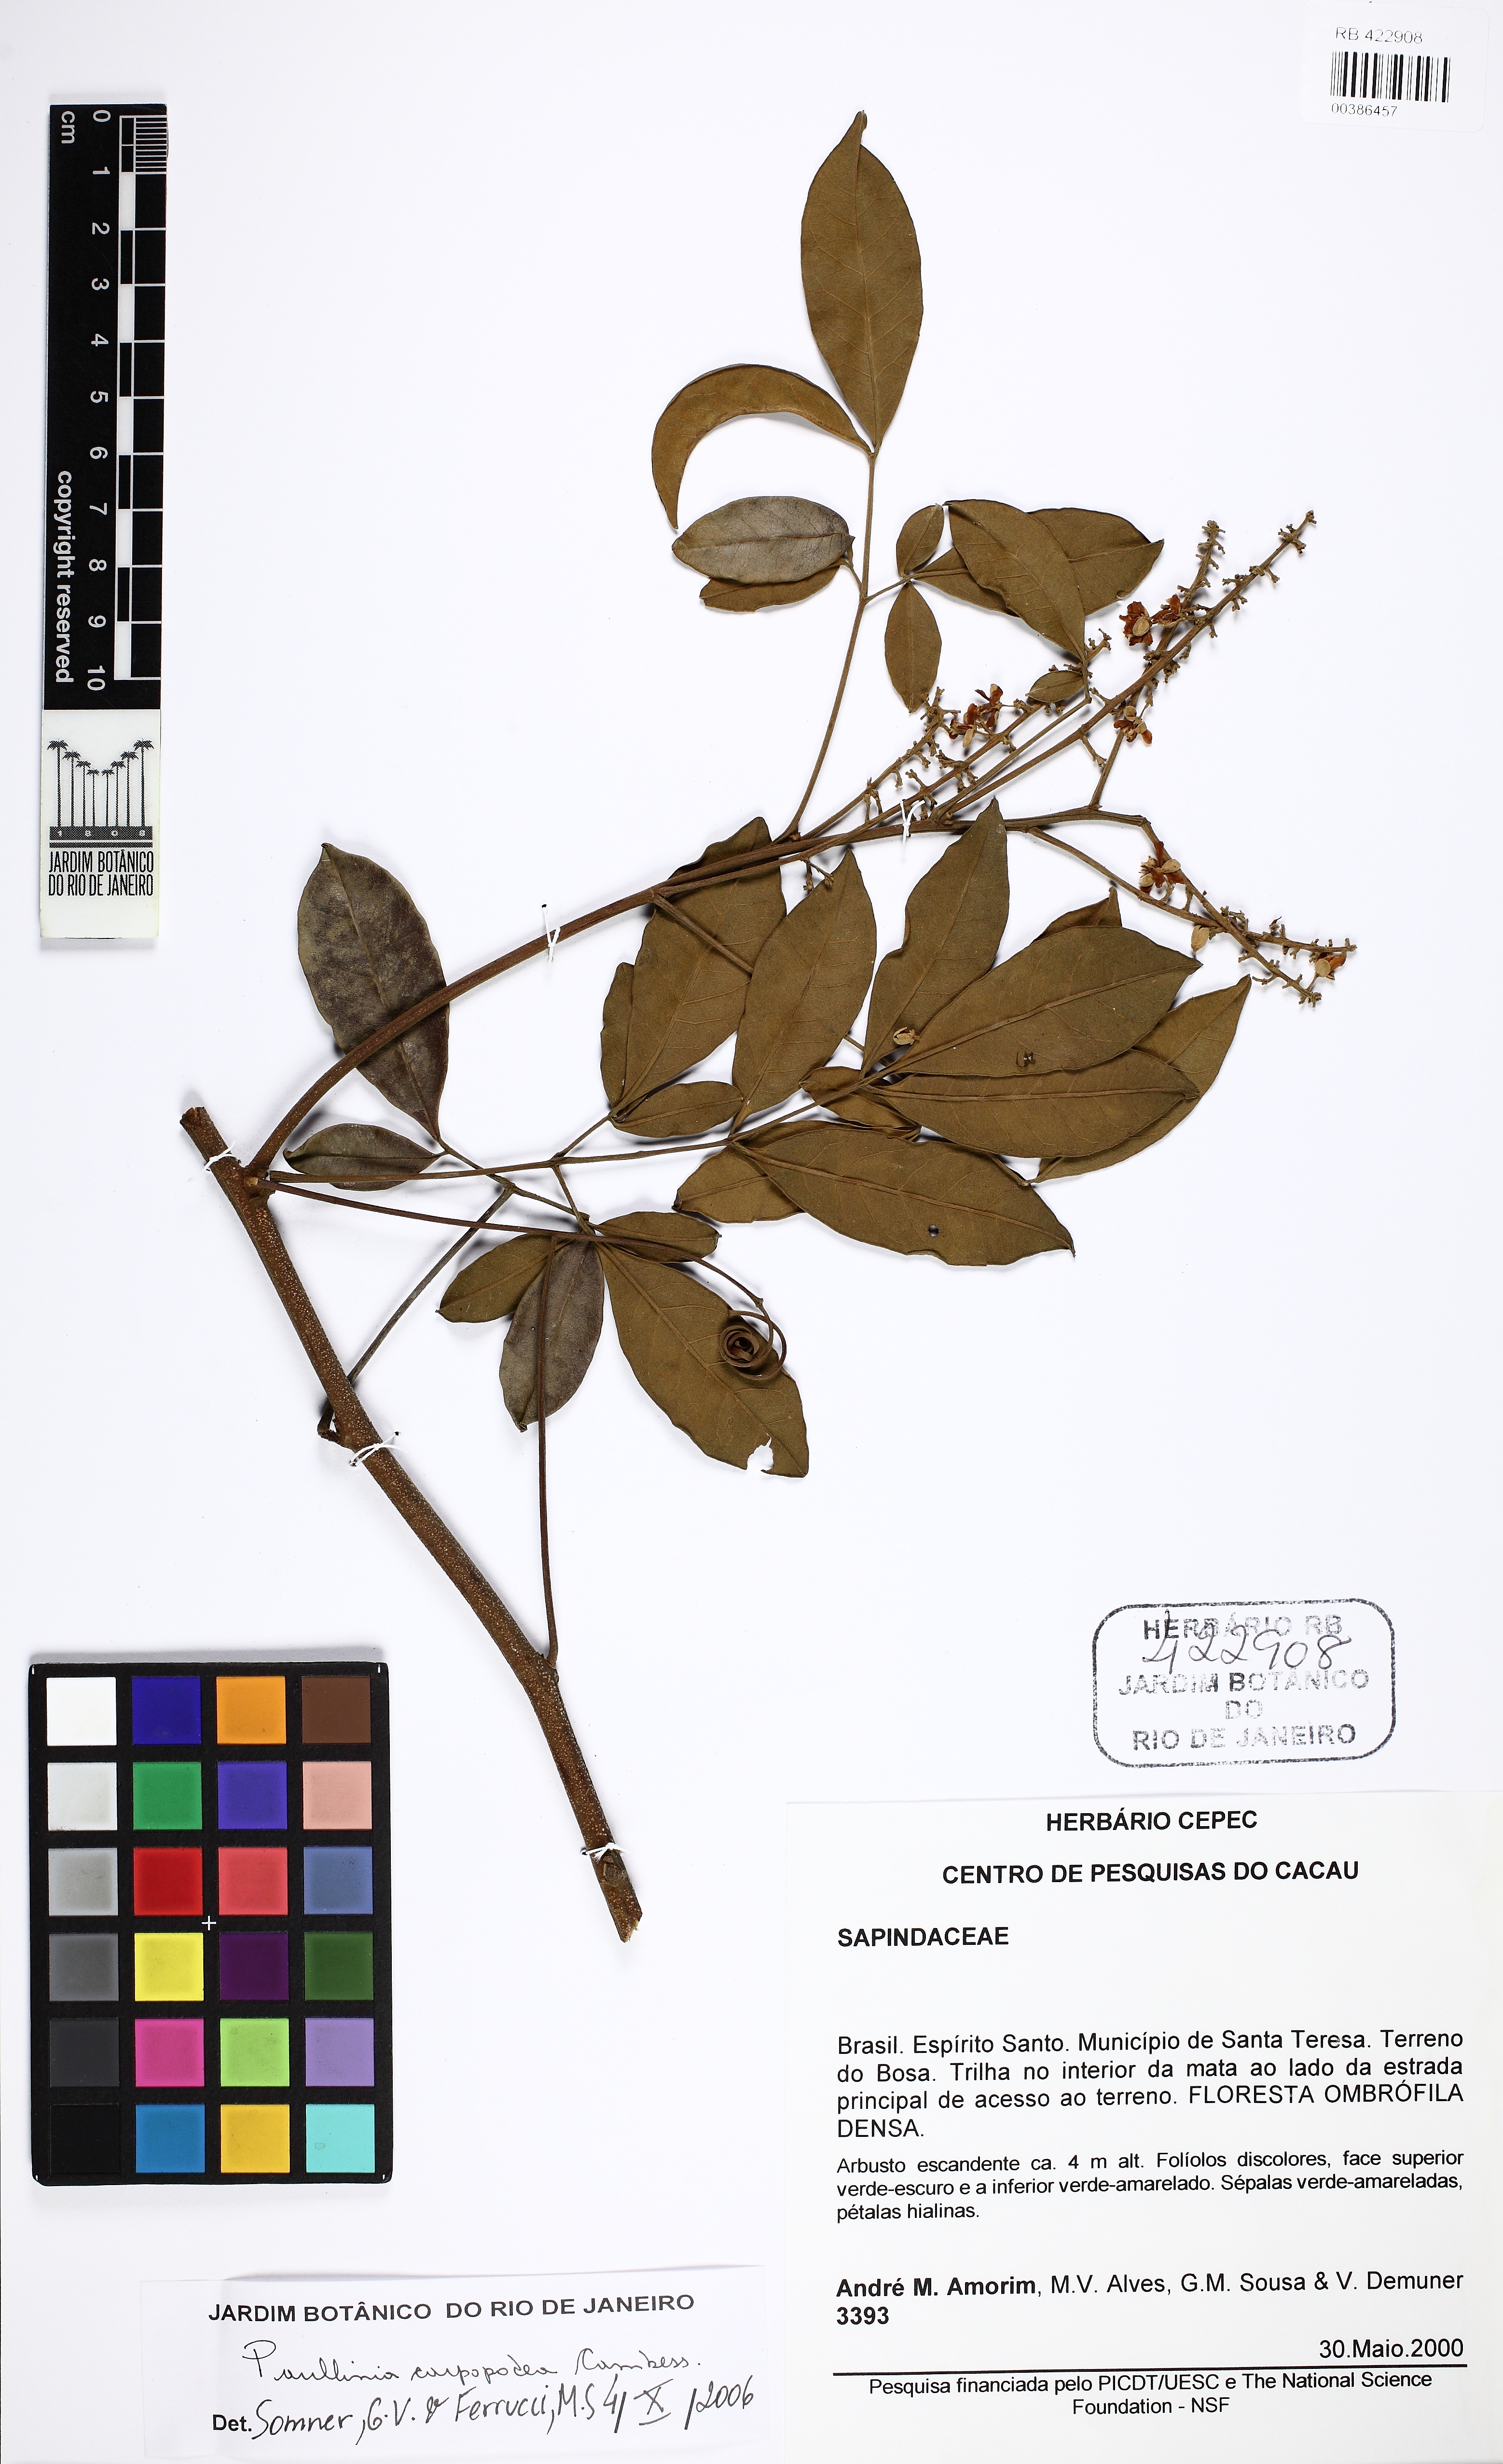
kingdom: Plantae
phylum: Tracheophyta
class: Magnoliopsida
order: Sapindales
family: Sapindaceae
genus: Paullinia
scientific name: Paullinia carpopodea
